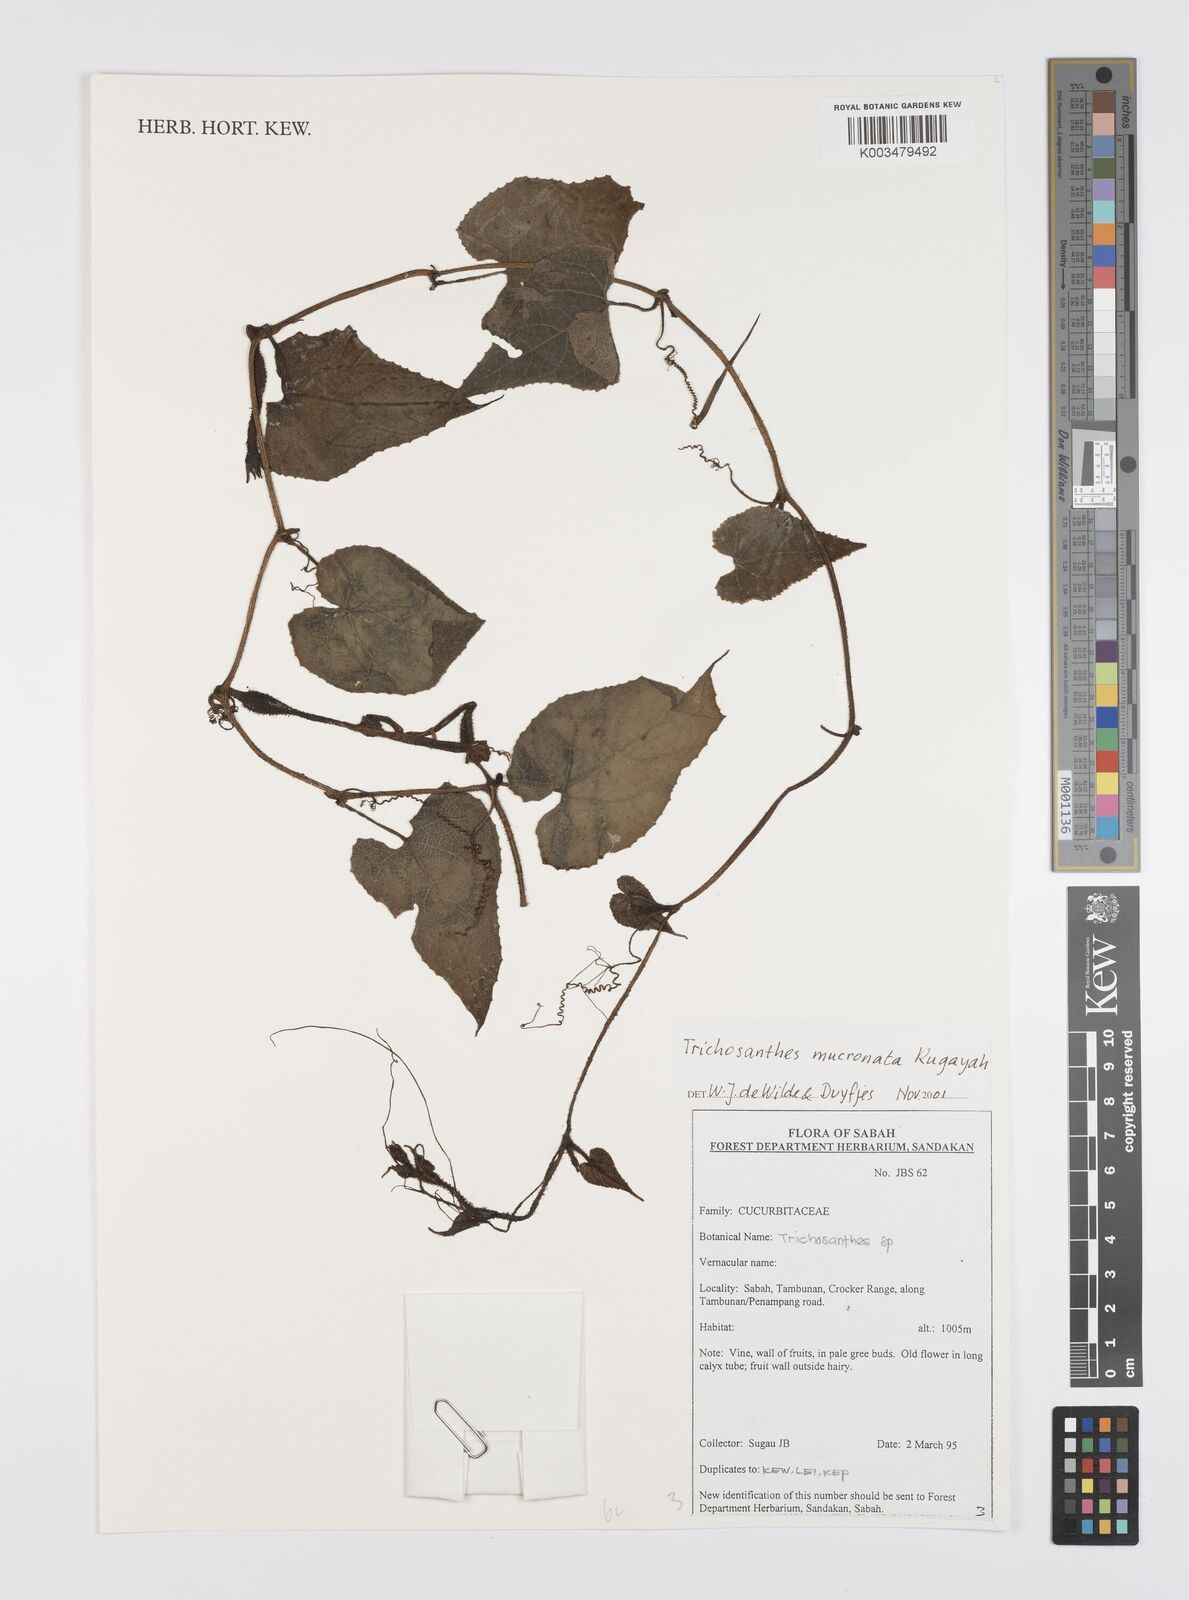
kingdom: Plantae
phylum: Tracheophyta
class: Magnoliopsida
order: Cucurbitales
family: Cucurbitaceae
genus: Trichosanthes
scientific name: Trichosanthes mucronata
